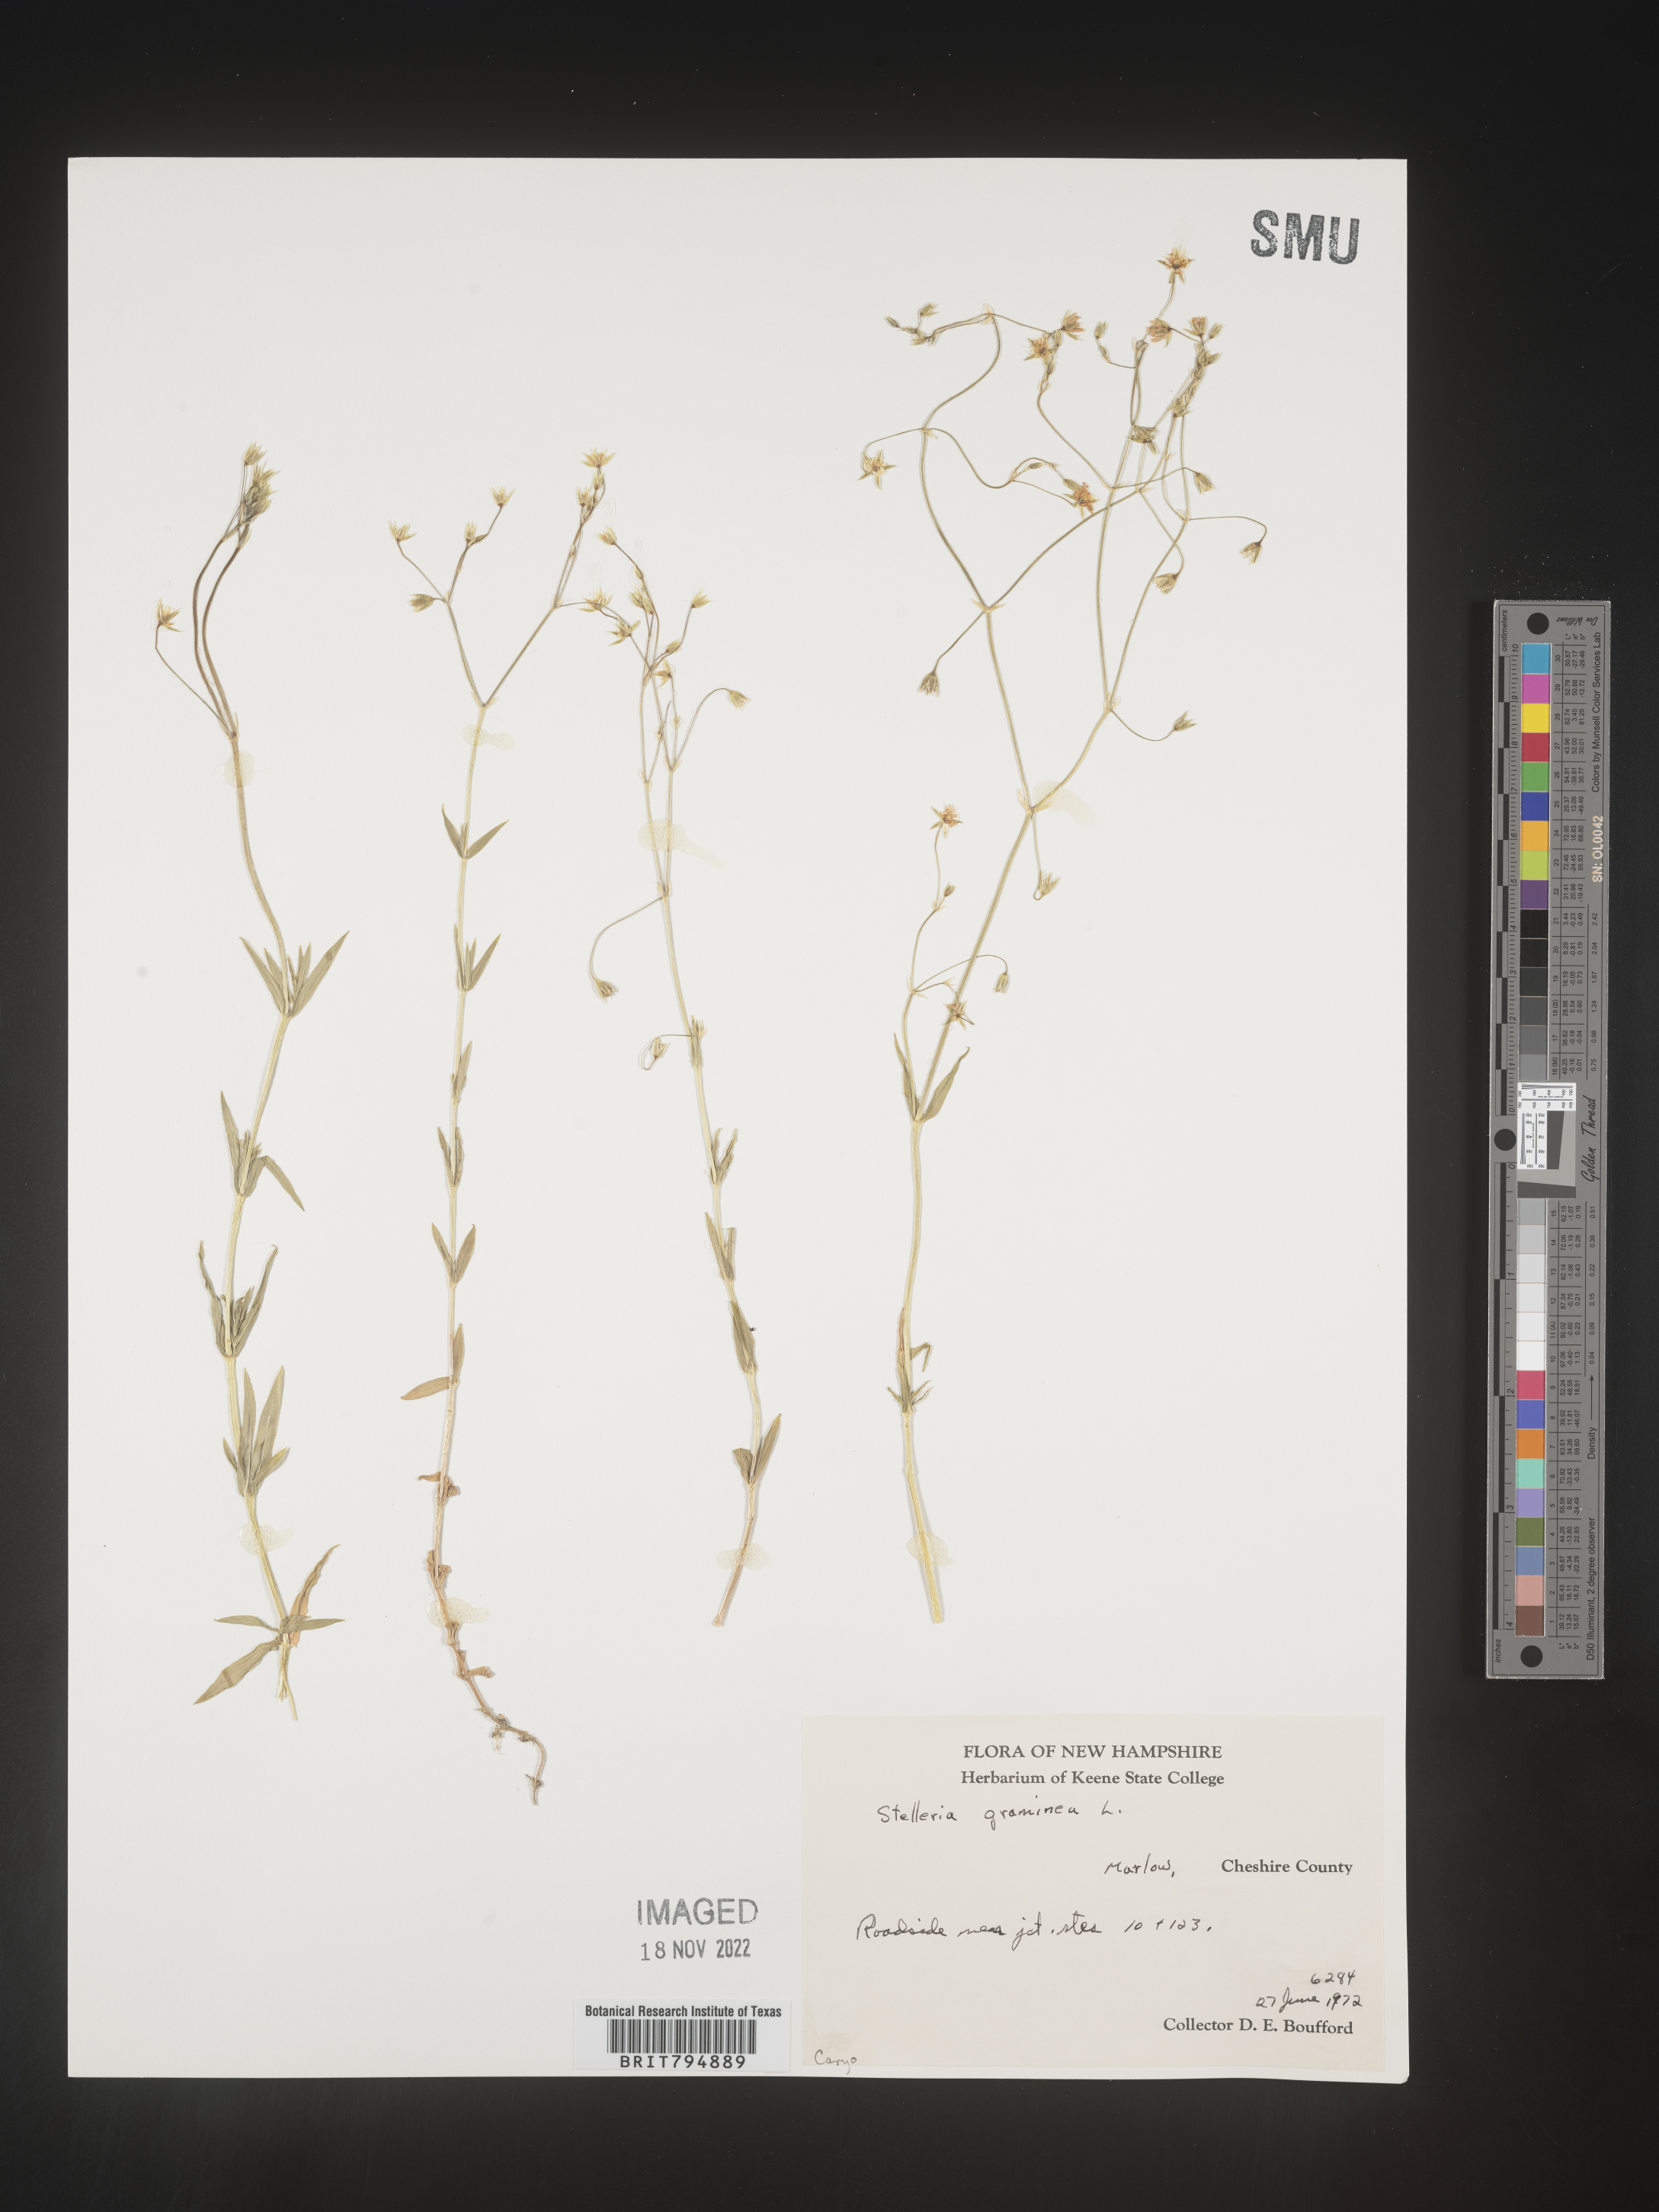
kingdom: Plantae
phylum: Tracheophyta
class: Magnoliopsida
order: Caryophyllales
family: Caryophyllaceae
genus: Stellaria
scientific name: Stellaria graminea
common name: Grass-like starwort
